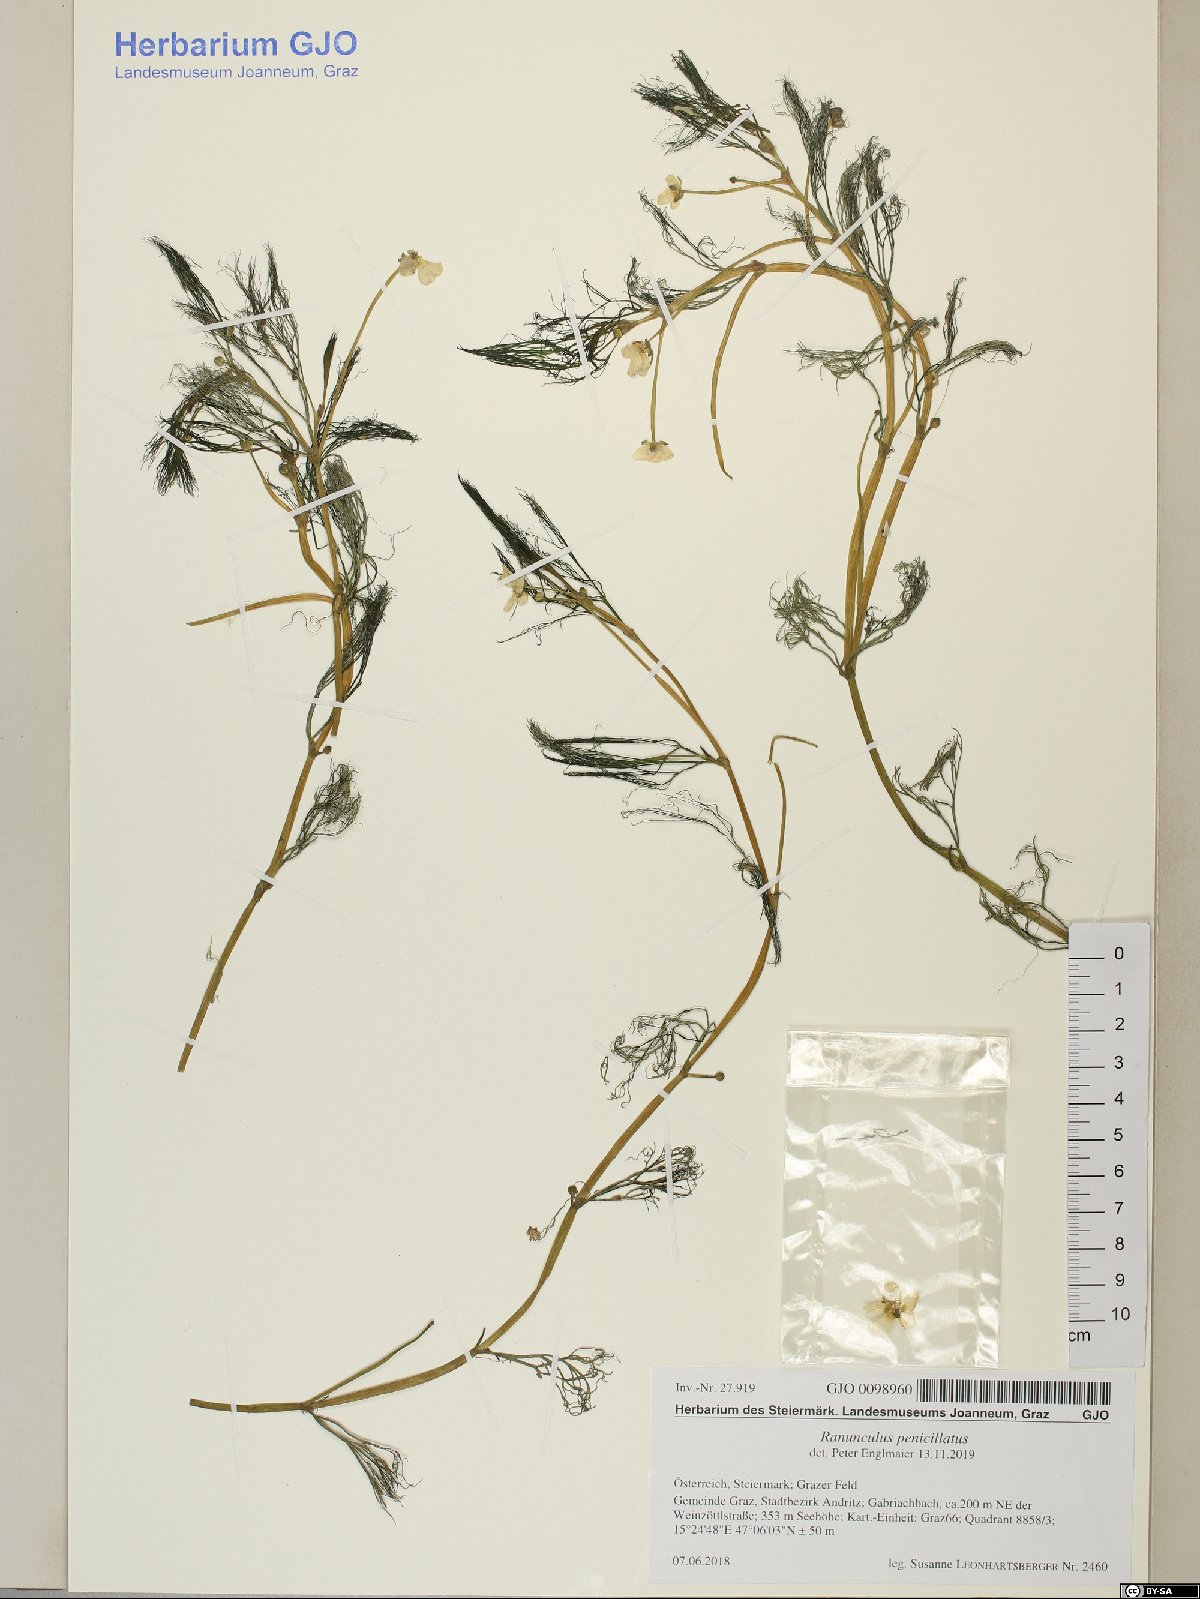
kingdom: Plantae
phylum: Tracheophyta
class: Magnoliopsida
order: Ranunculales
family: Ranunculaceae
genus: Ranunculus
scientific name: Ranunculus penicillatus
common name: Stream water-crowfoot
